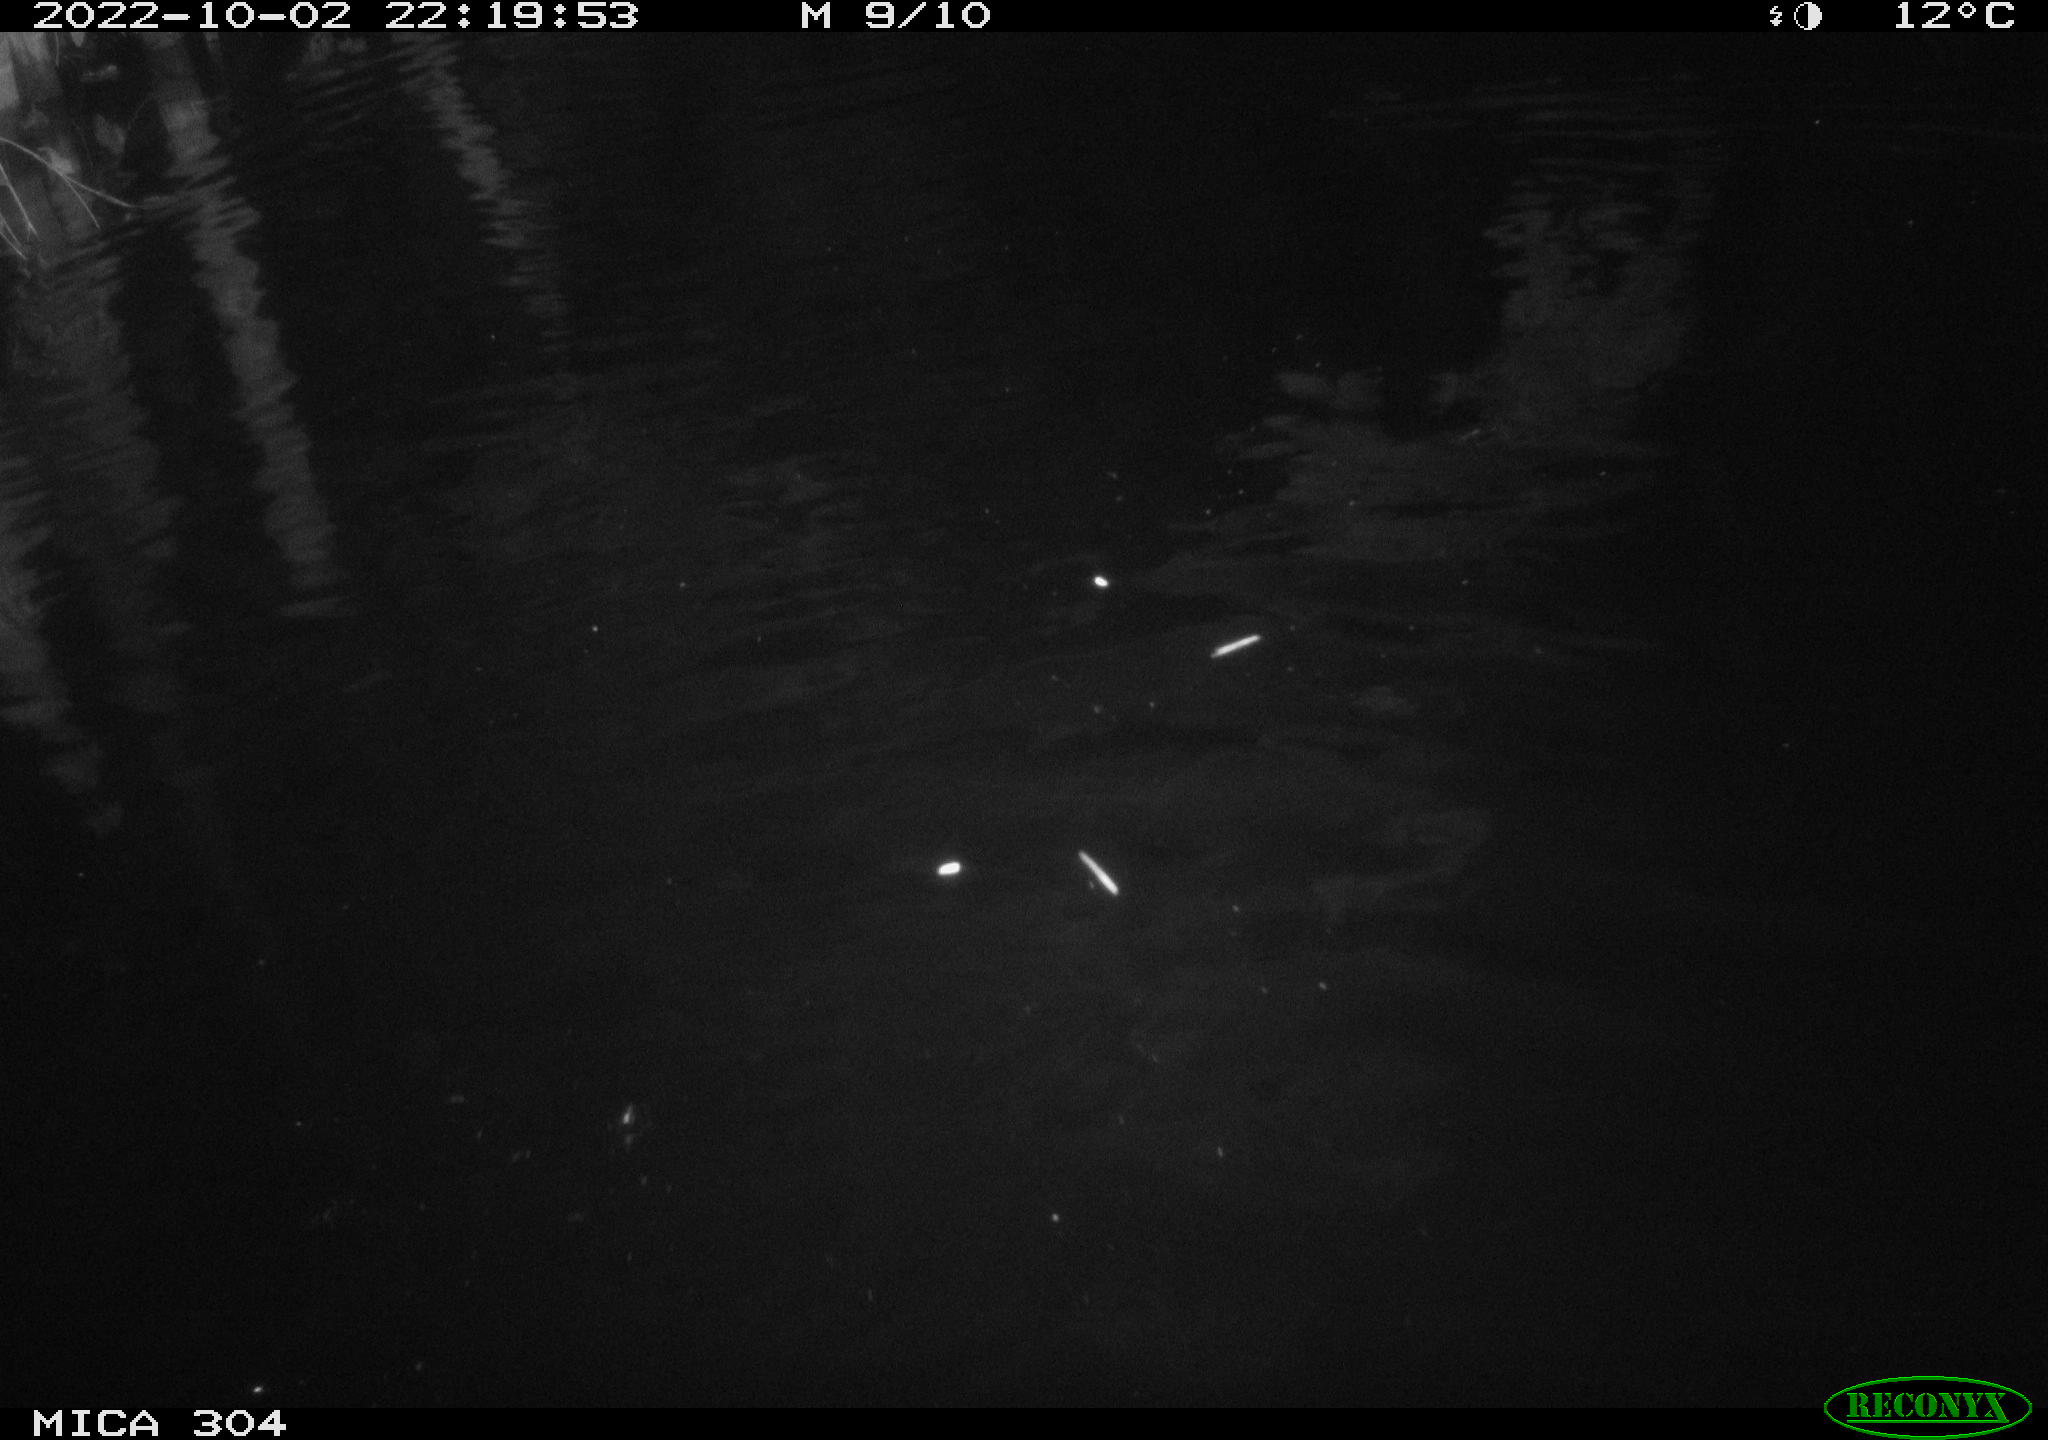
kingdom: Animalia
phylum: Chordata
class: Mammalia
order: Rodentia
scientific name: Rodentia
